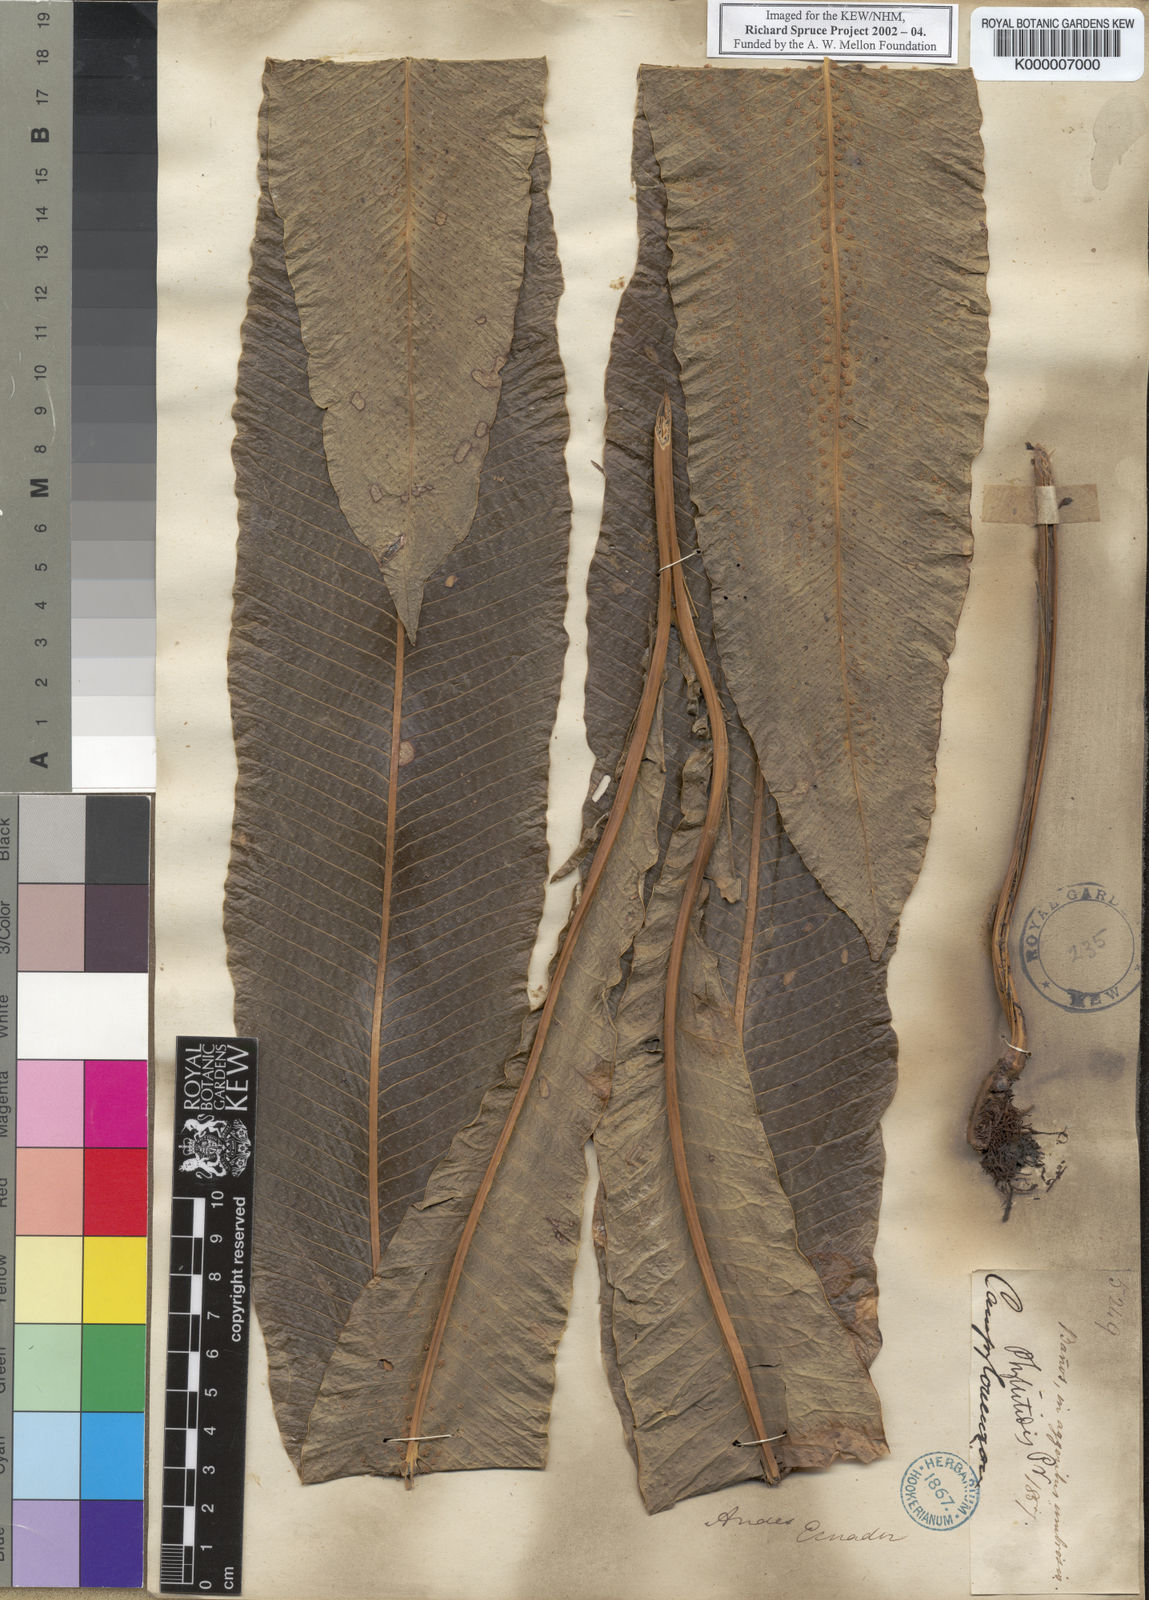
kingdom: Plantae
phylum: Tracheophyta
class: Polypodiopsida
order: Polypodiales
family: Polypodiaceae
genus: Campyloneurum
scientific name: Campyloneurum
